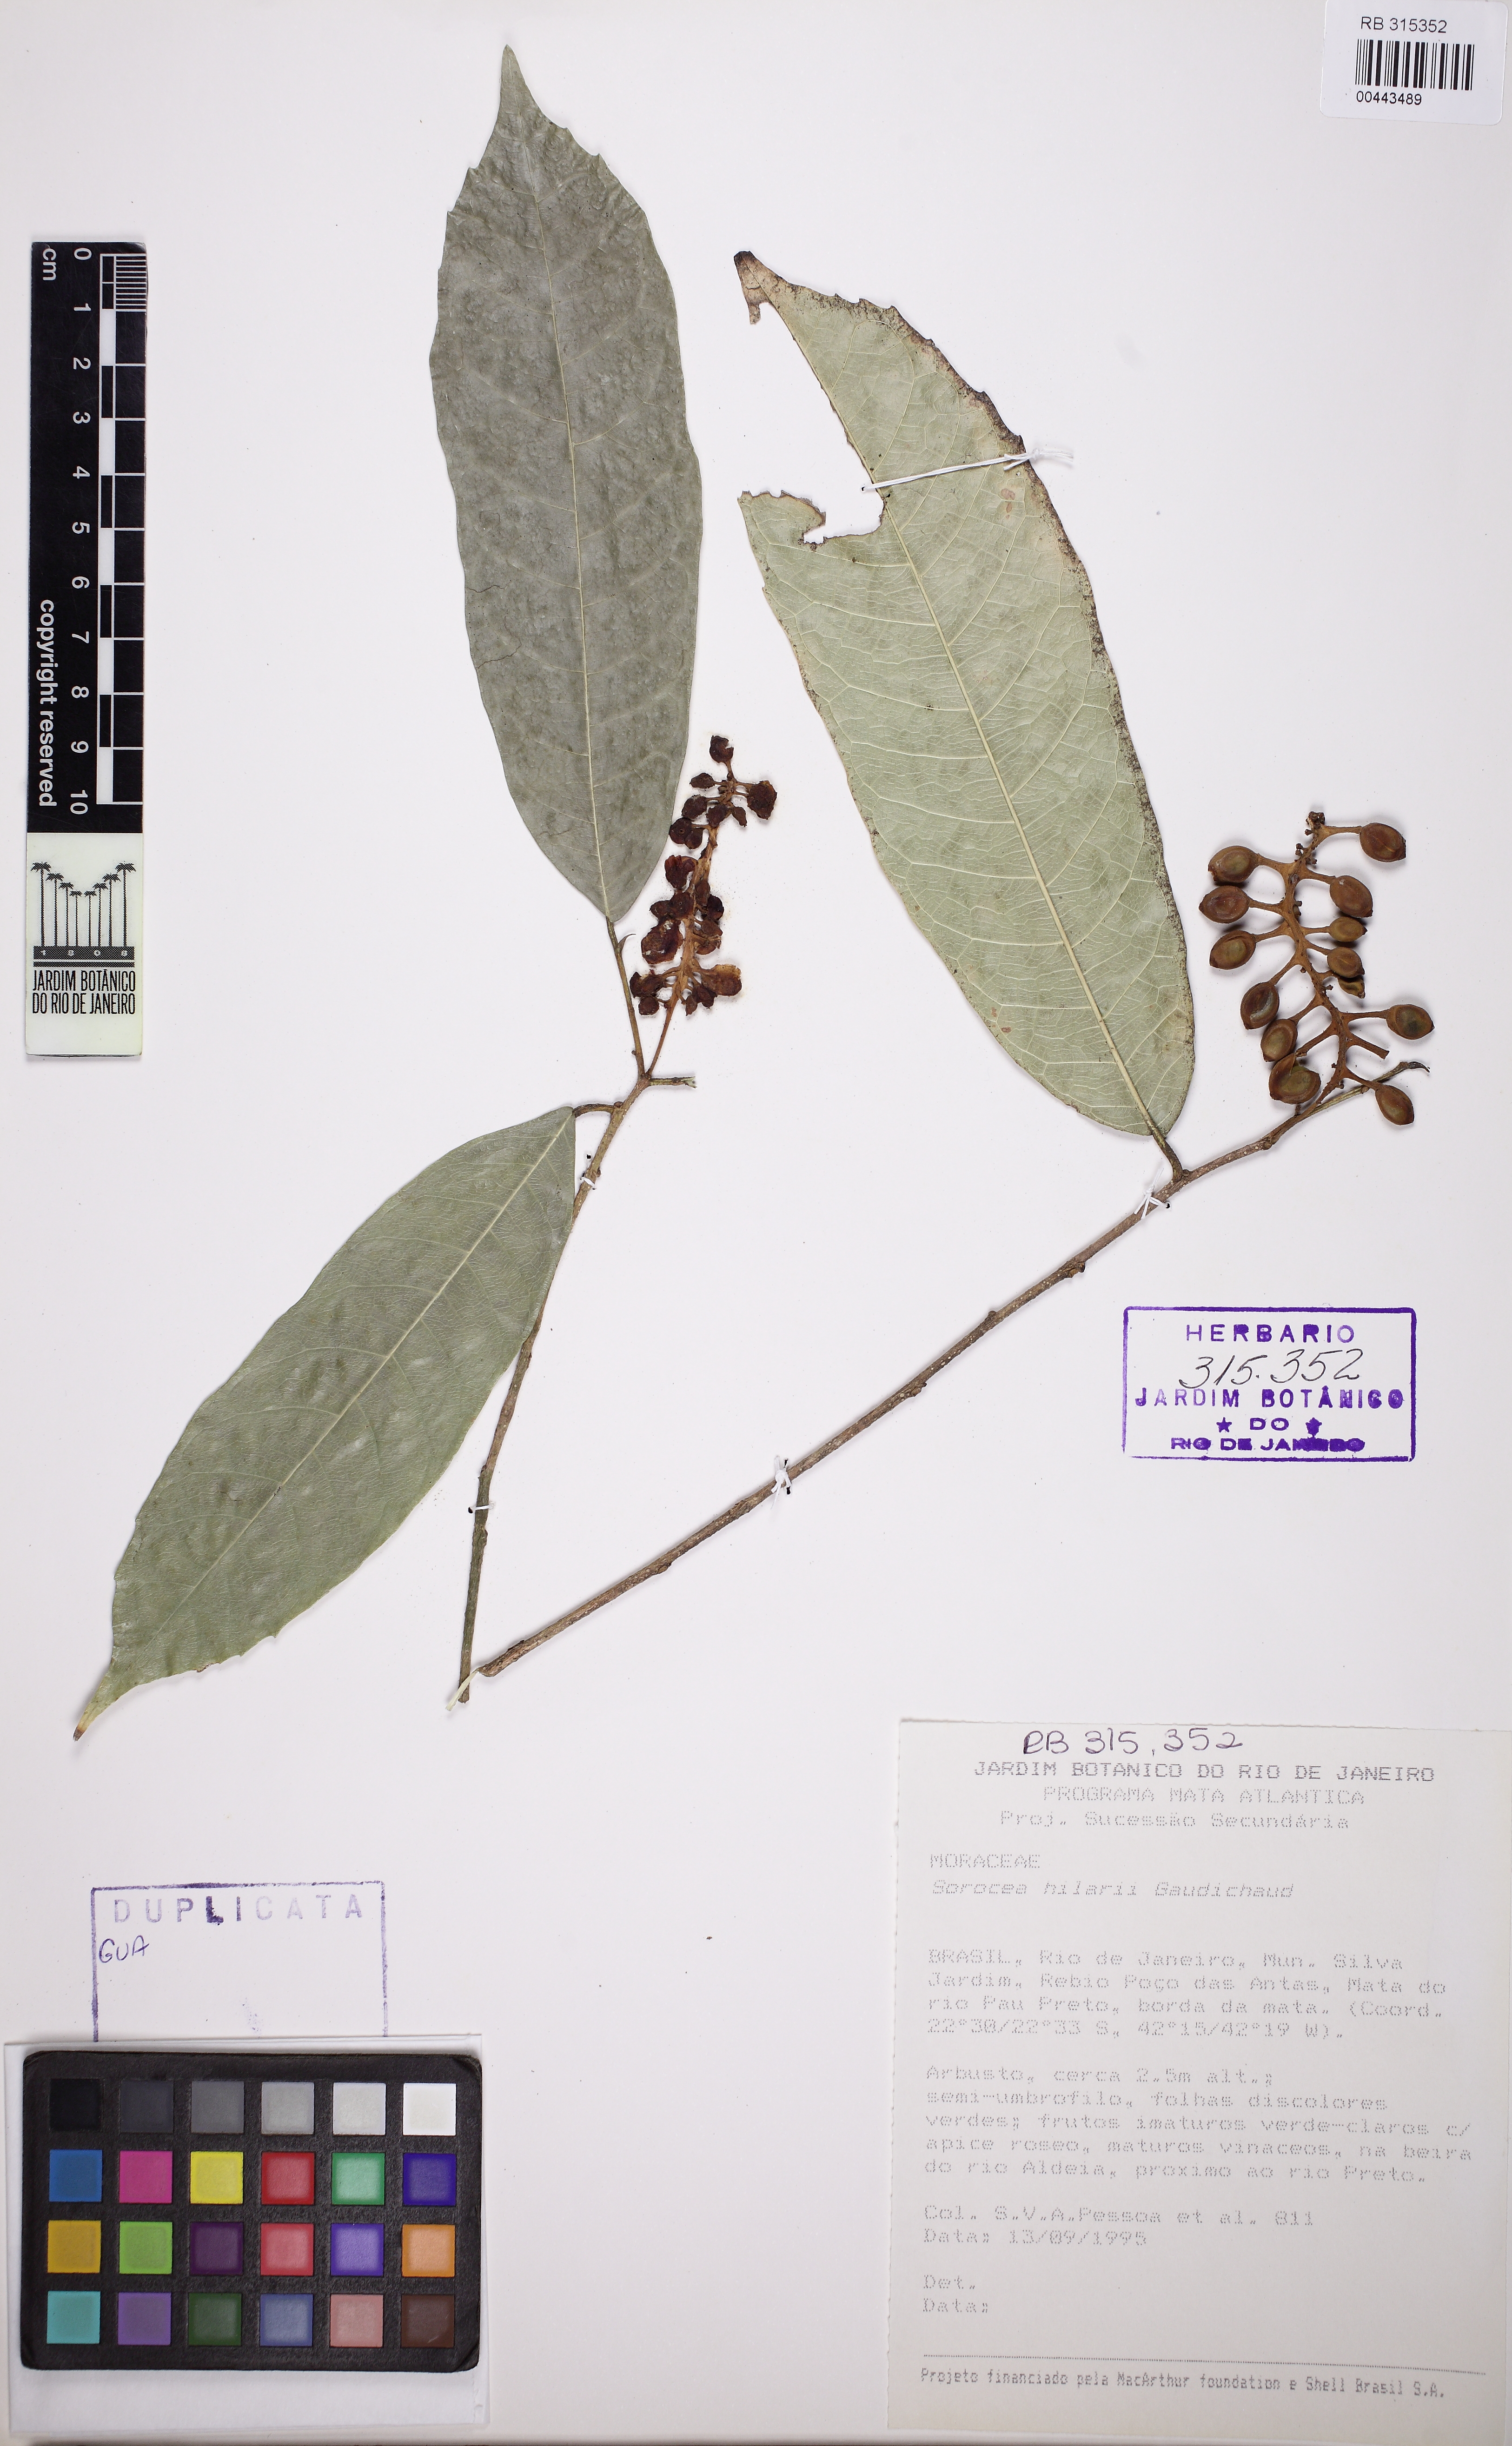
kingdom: Plantae
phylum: Tracheophyta
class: Magnoliopsida
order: Rosales
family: Moraceae
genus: Sorocea
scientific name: Sorocea hilarii
